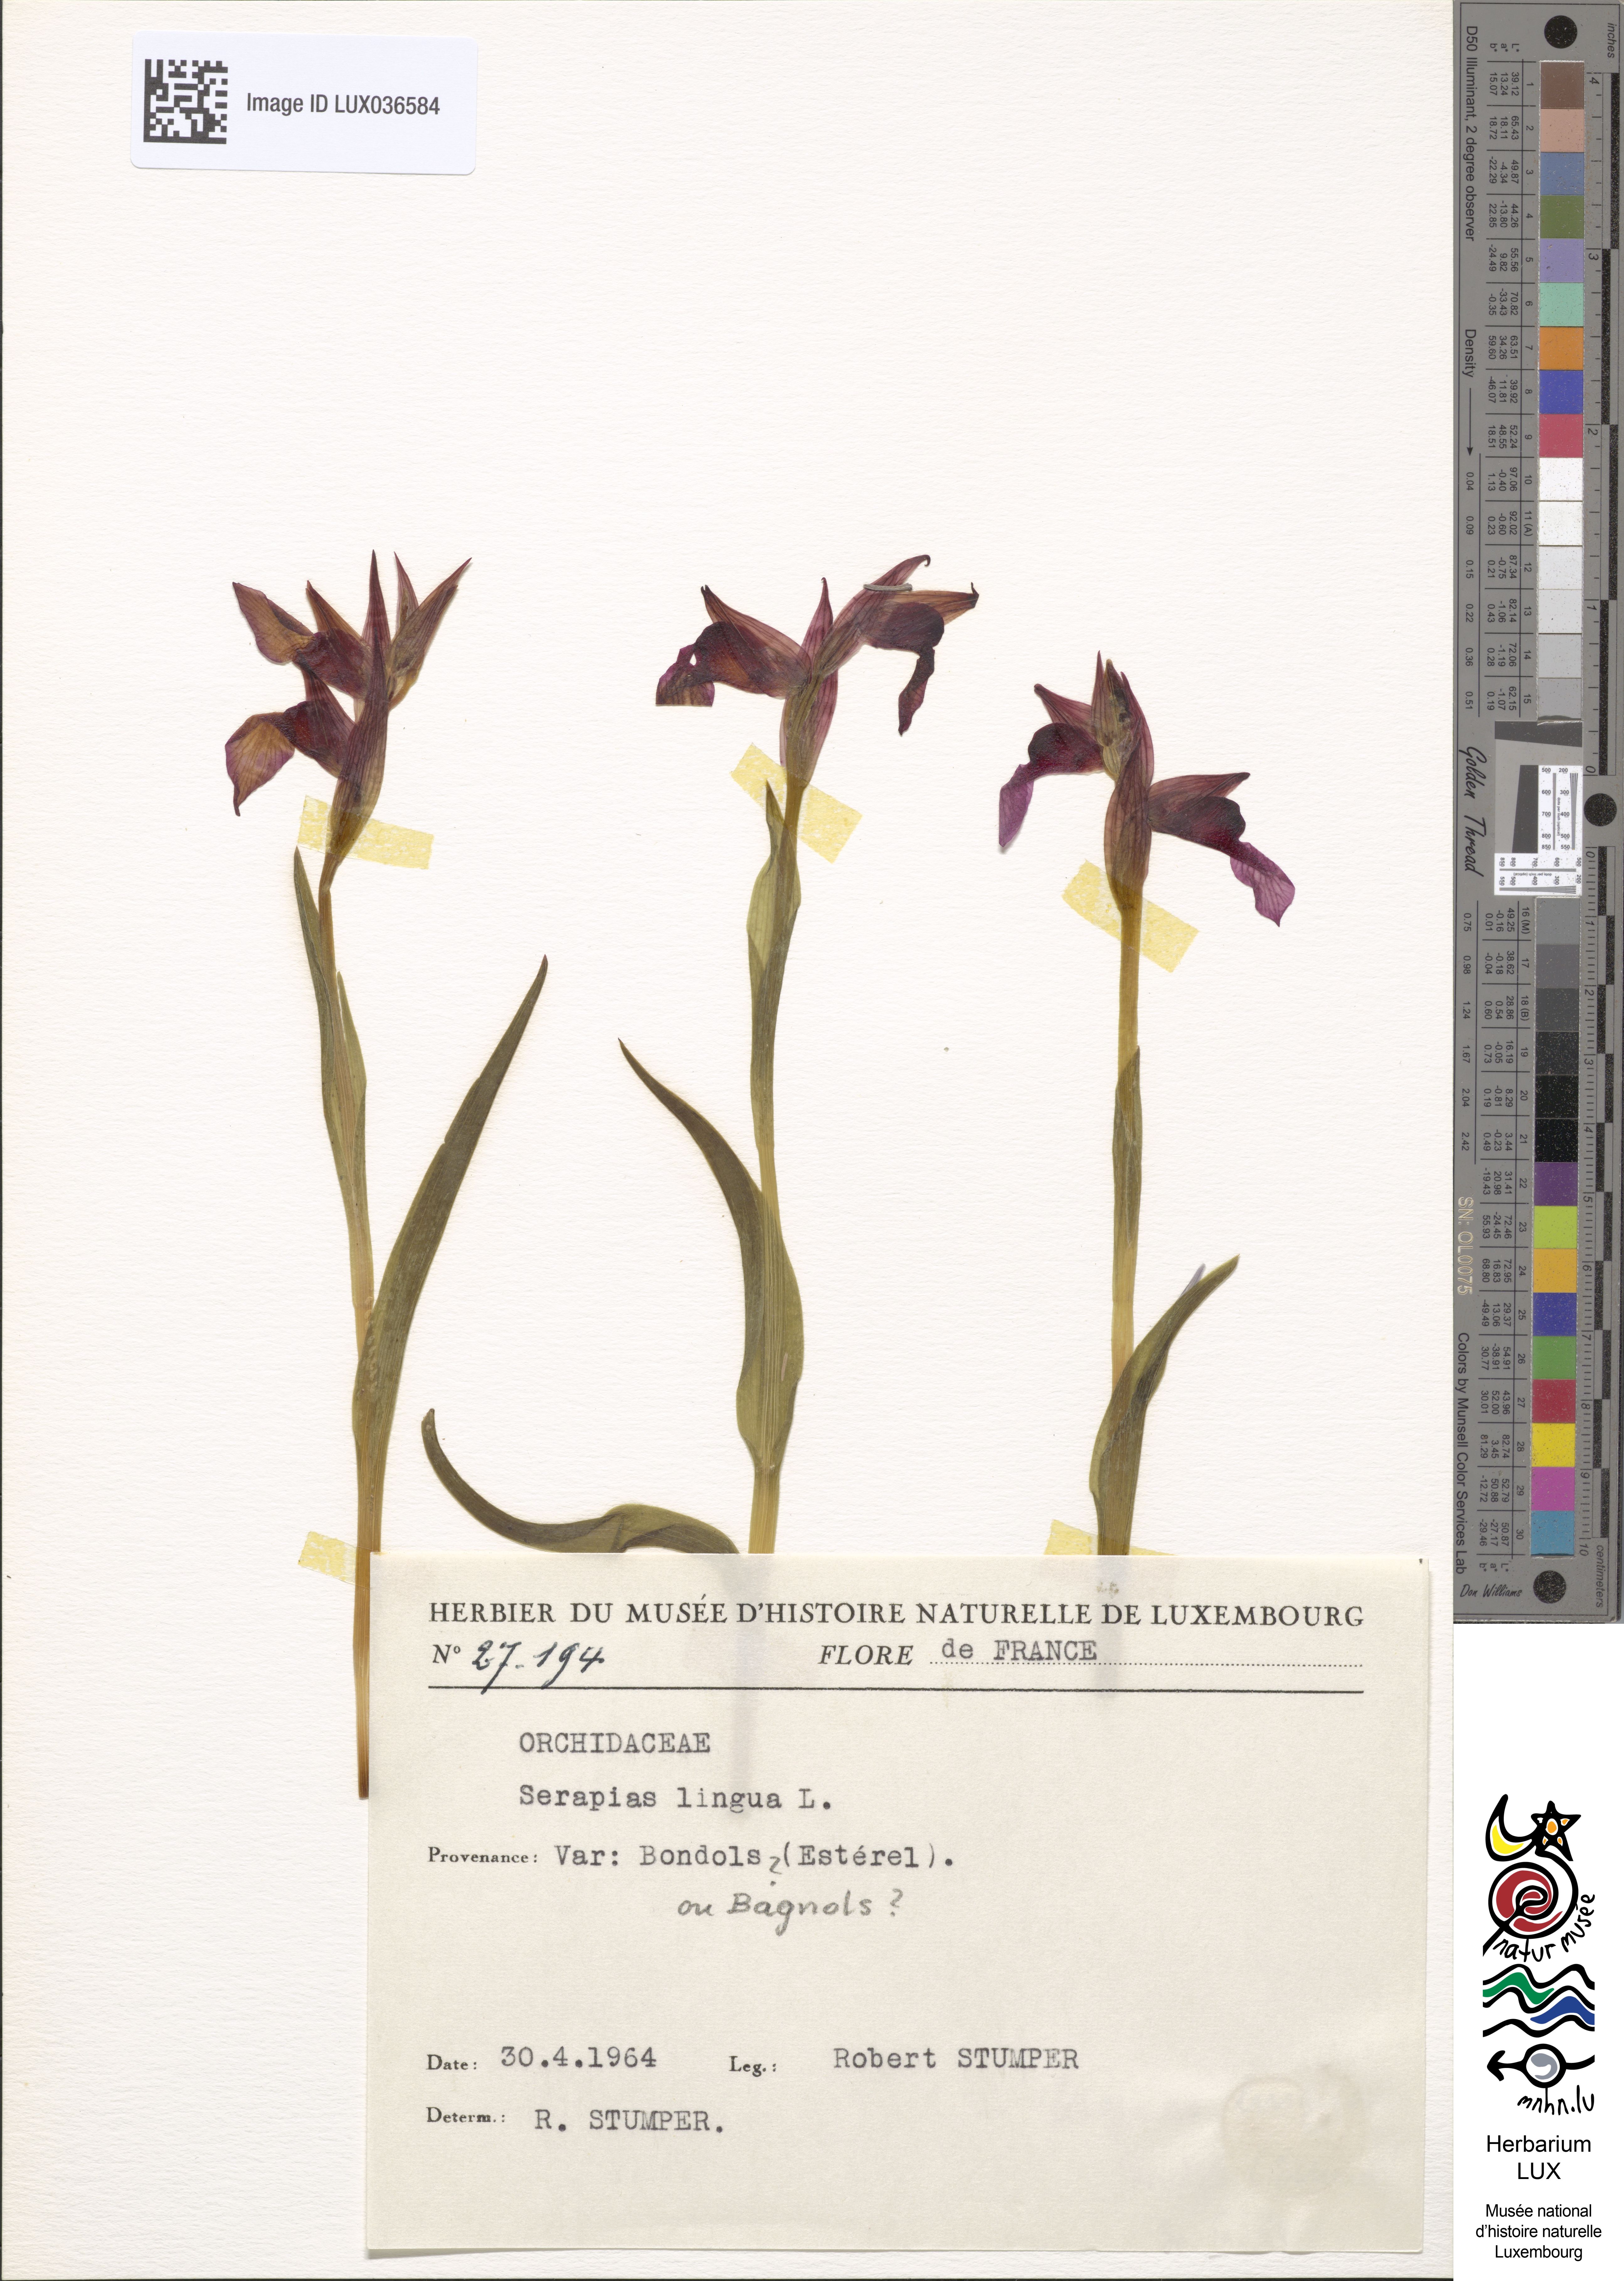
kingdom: Plantae
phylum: Tracheophyta
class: Liliopsida
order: Asparagales
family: Orchidaceae
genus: Serapias
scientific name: Serapias lingua
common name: Tongue-orchid
